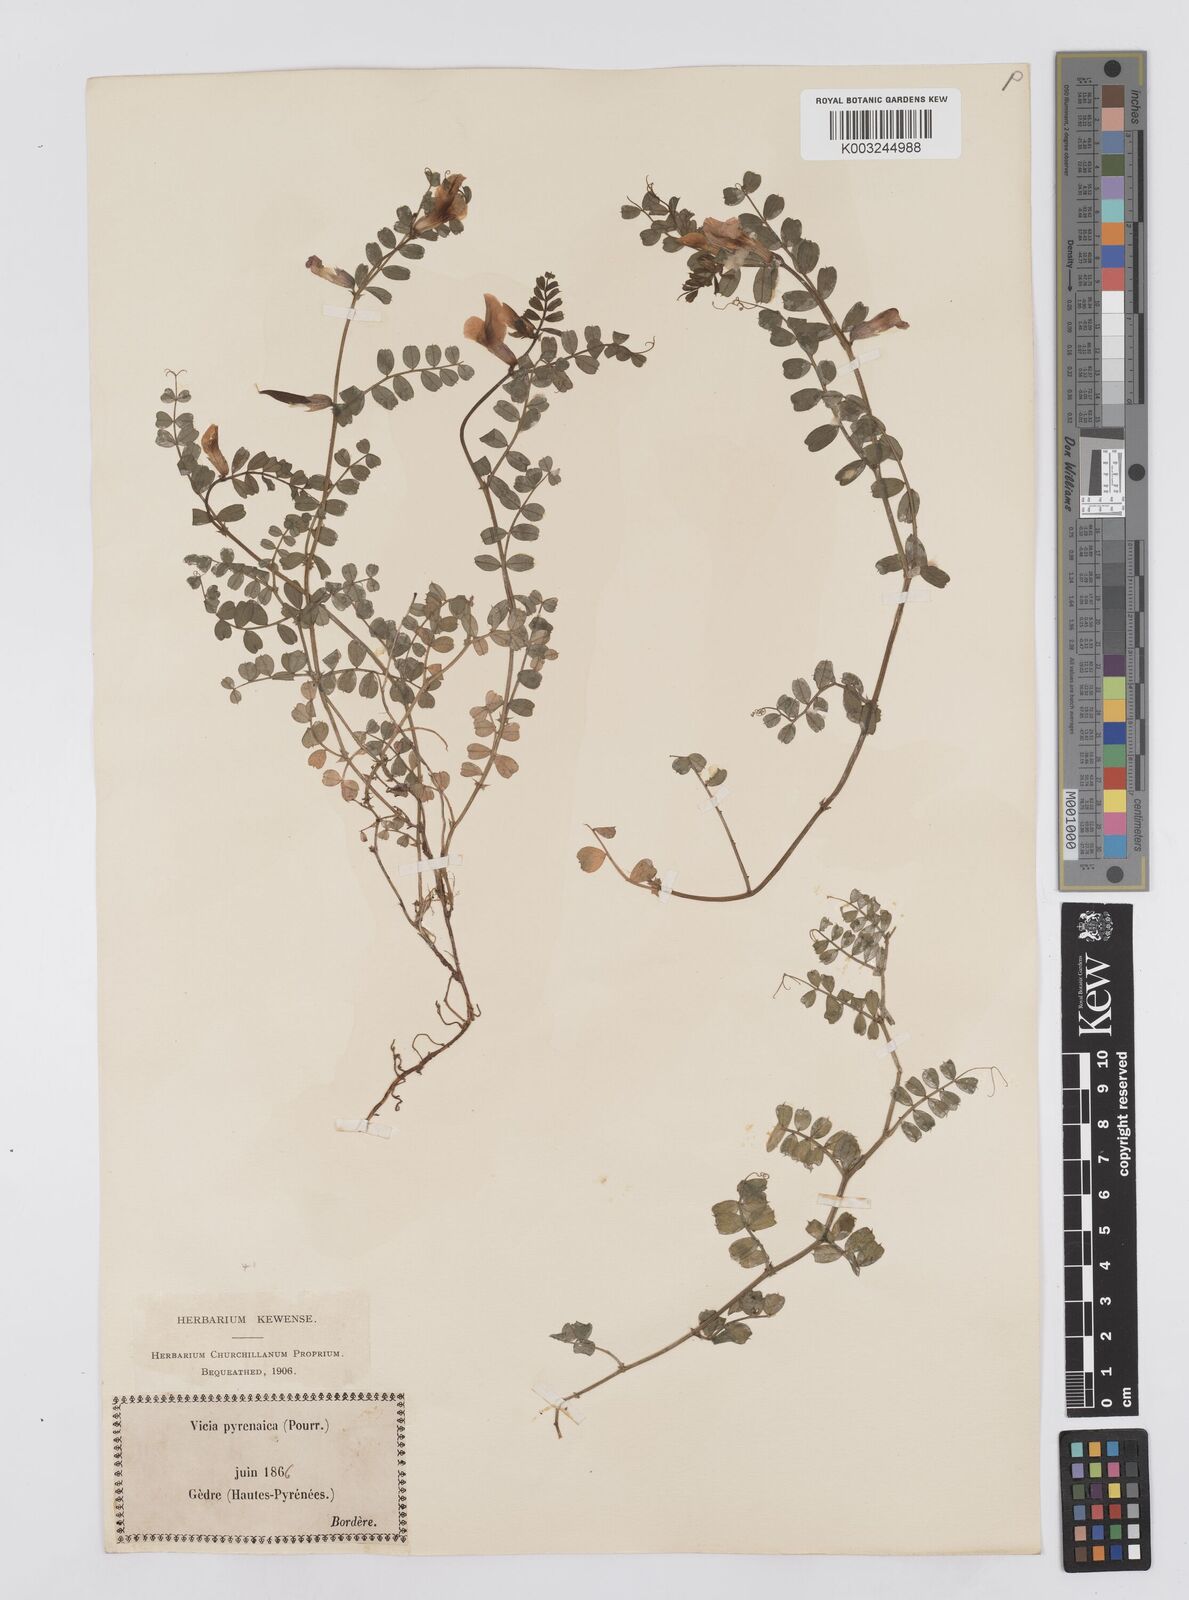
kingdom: Plantae
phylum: Tracheophyta
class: Magnoliopsida
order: Fabales
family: Fabaceae
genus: Vicia
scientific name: Vicia pyrenaica
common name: Pyrenean vetch
